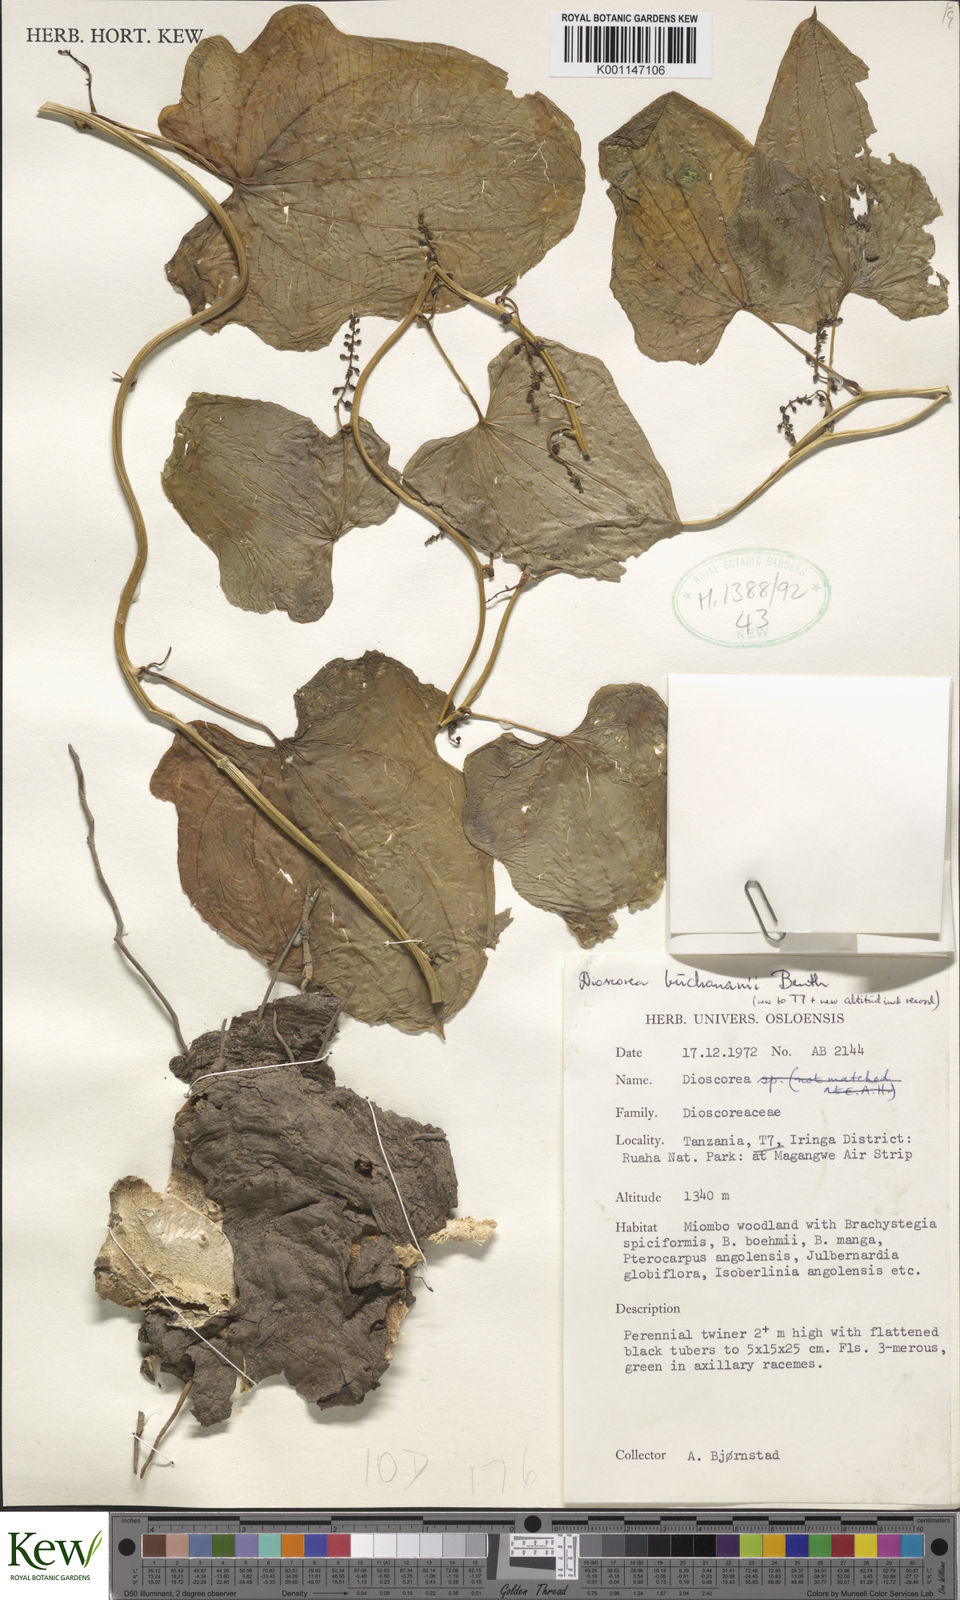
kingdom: Plantae
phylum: Tracheophyta
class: Liliopsida
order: Dioscoreales
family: Dioscoreaceae
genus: Dioscorea
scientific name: Dioscorea buchananii
